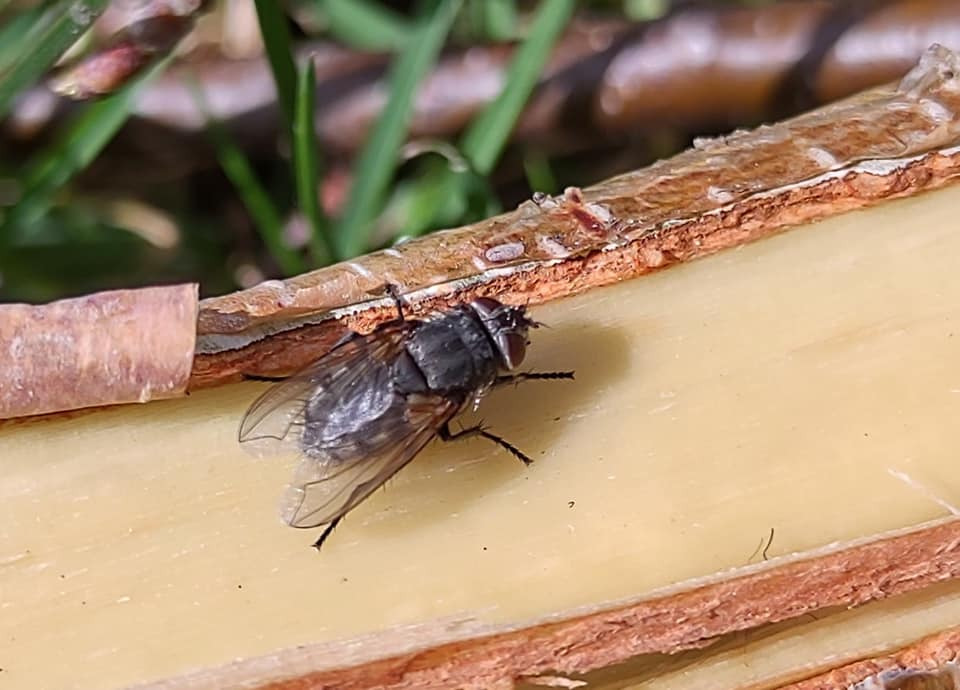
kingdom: Animalia
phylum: Arthropoda
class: Insecta
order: Diptera
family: Polleniidae
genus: Pollenia
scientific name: Pollenia labialis
